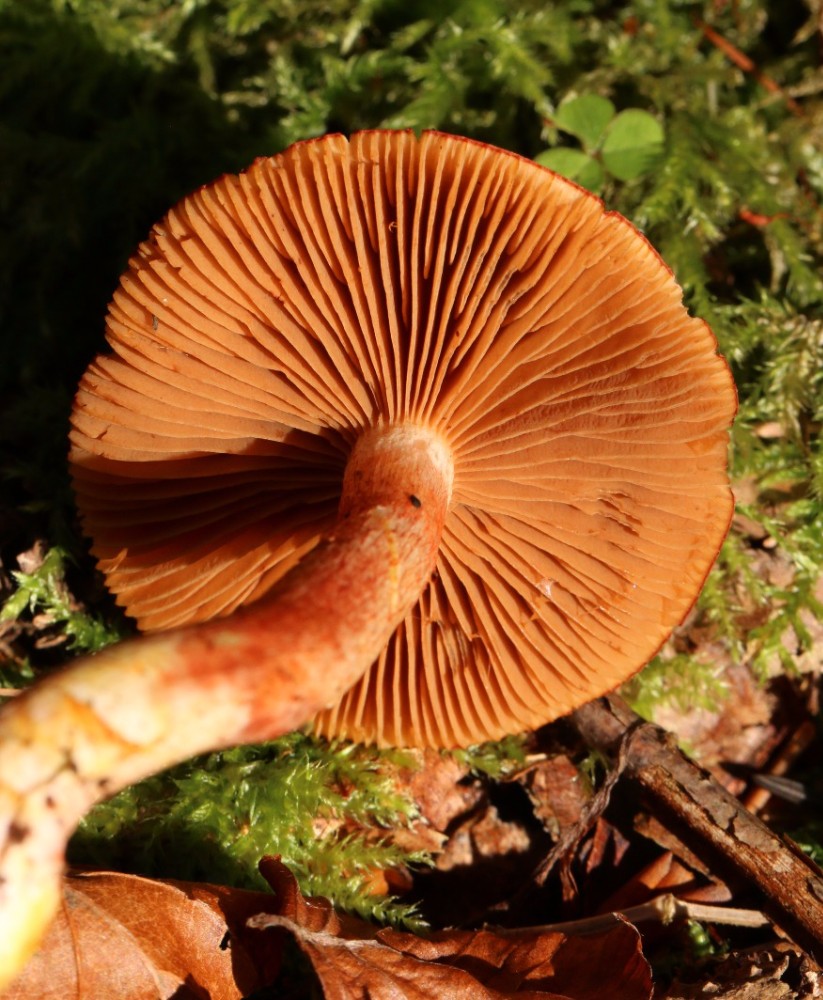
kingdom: Fungi
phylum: Basidiomycota
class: Agaricomycetes
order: Agaricales
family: Cortinariaceae
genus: Cortinarius
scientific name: Cortinarius bolaris
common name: cinnoberskællet slørhat
